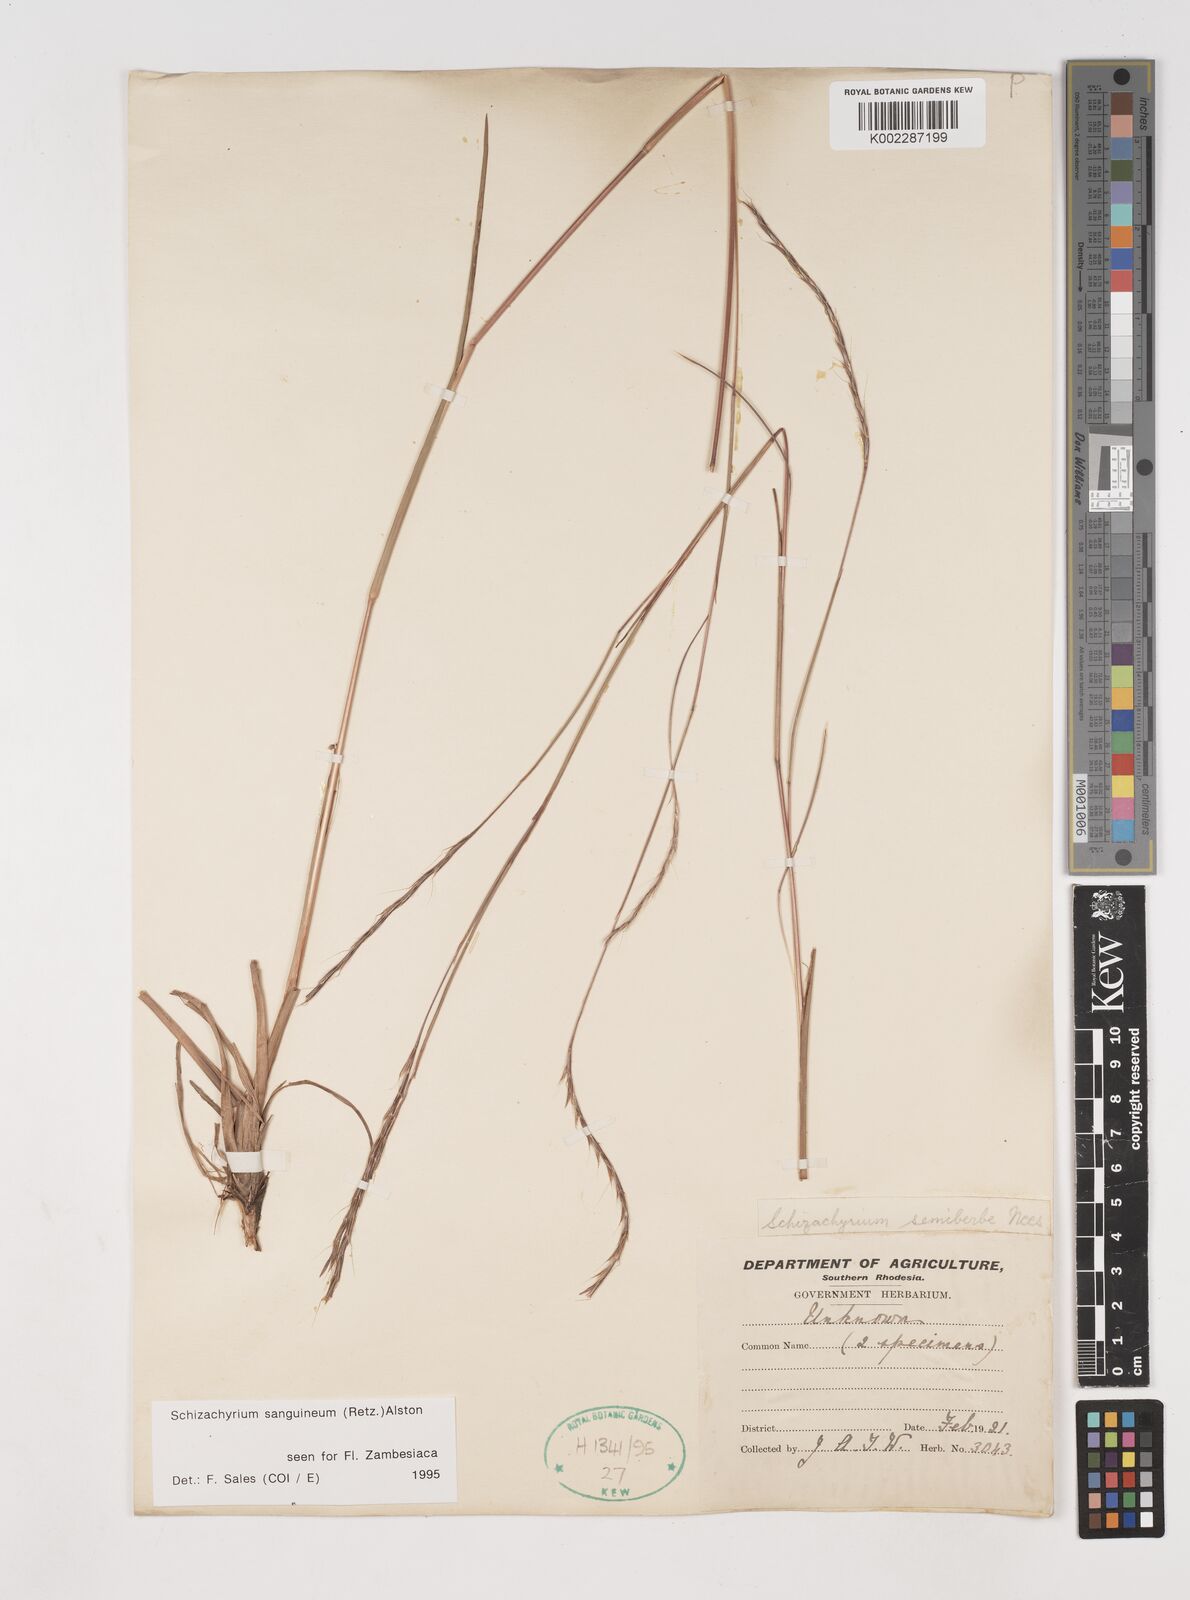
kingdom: Plantae
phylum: Tracheophyta
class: Liliopsida
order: Poales
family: Poaceae
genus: Schizachyrium
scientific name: Schizachyrium sanguineum
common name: Crimson bluestem
